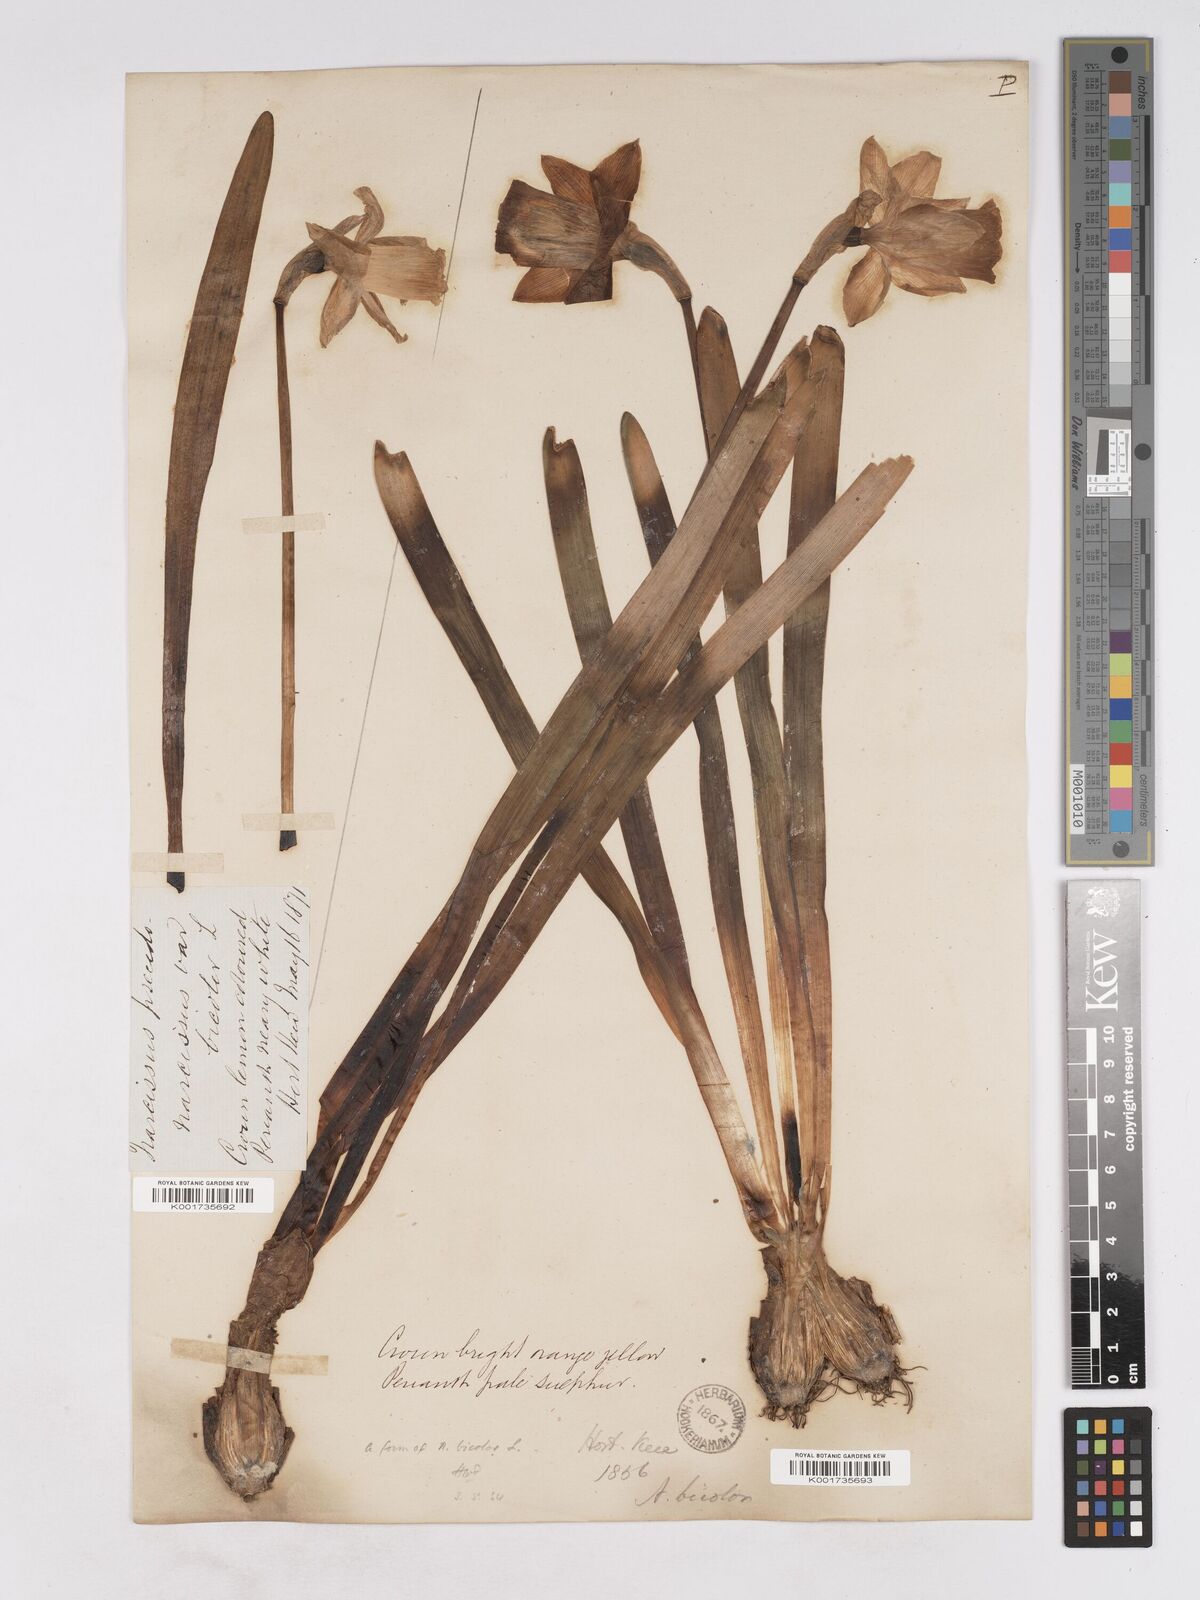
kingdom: Plantae
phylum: Tracheophyta
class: Liliopsida
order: Asparagales
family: Amaryllidaceae
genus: Narcissus
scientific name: Narcissus bicolor
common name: Two-color daffodil
